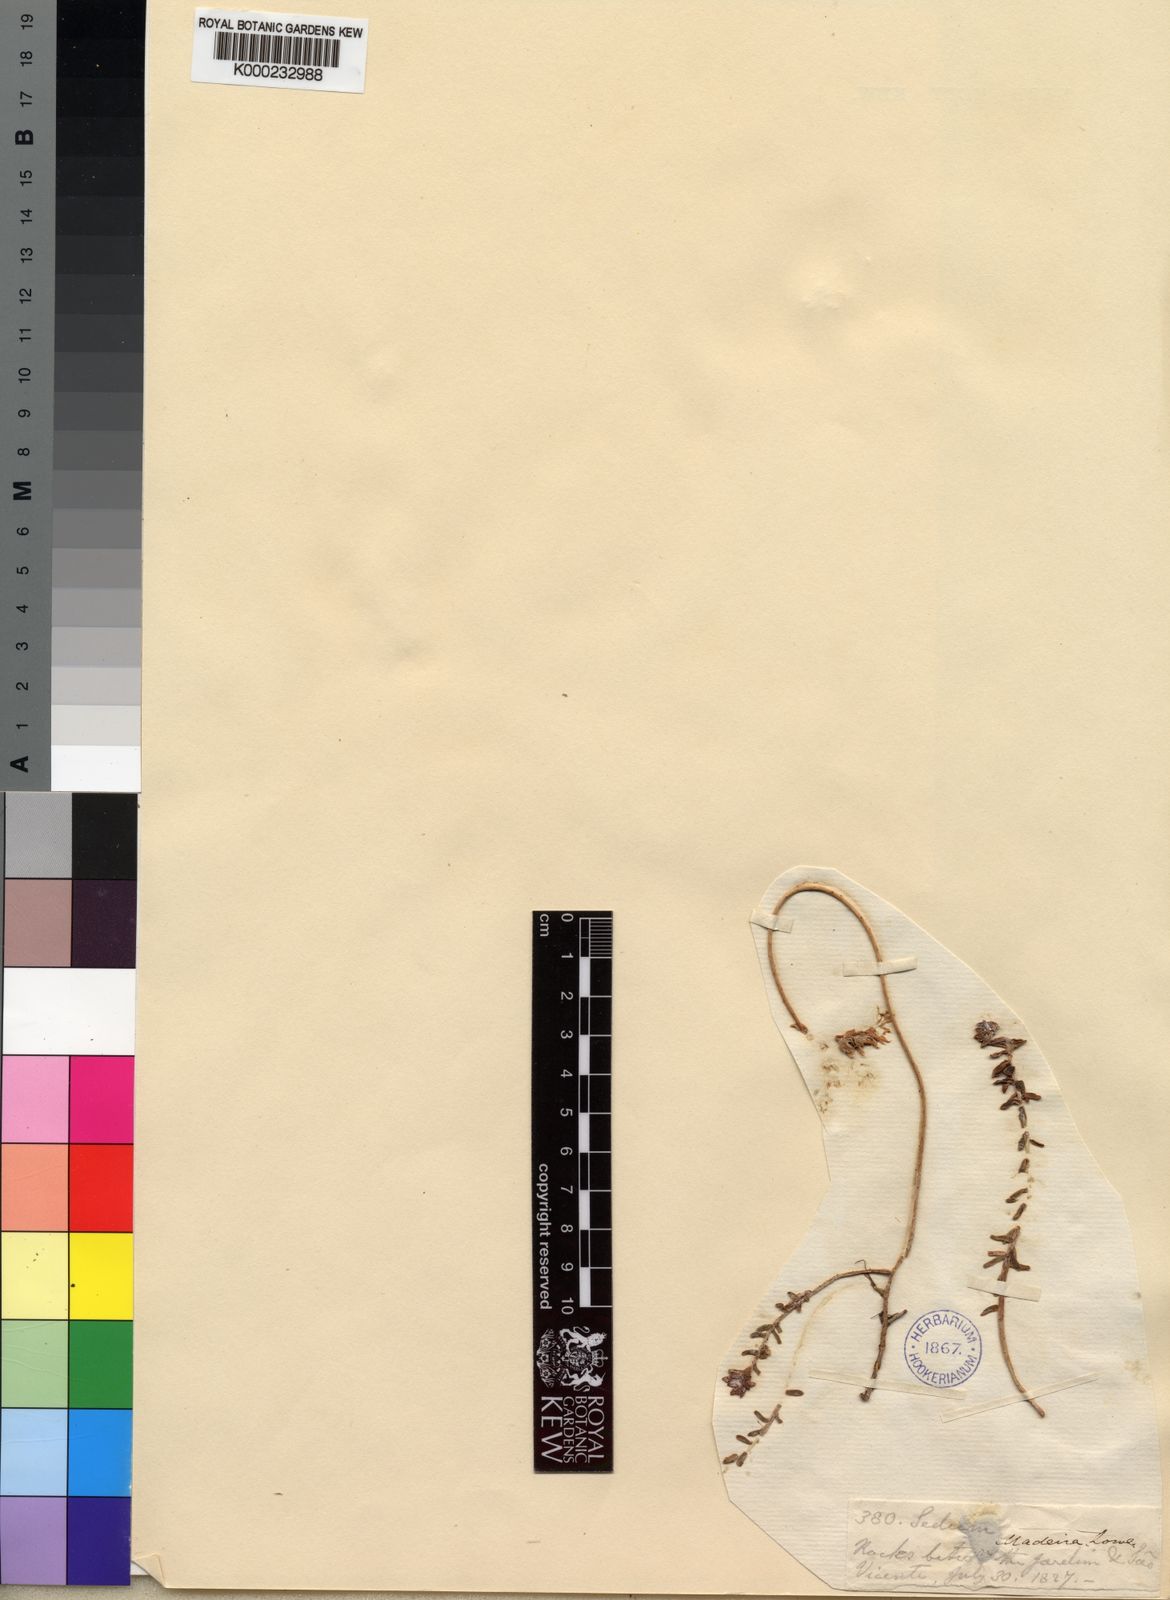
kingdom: Plantae
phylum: Tracheophyta
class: Magnoliopsida
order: Saxifragales
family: Crassulaceae
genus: Sedum
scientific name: Sedum farinosum
